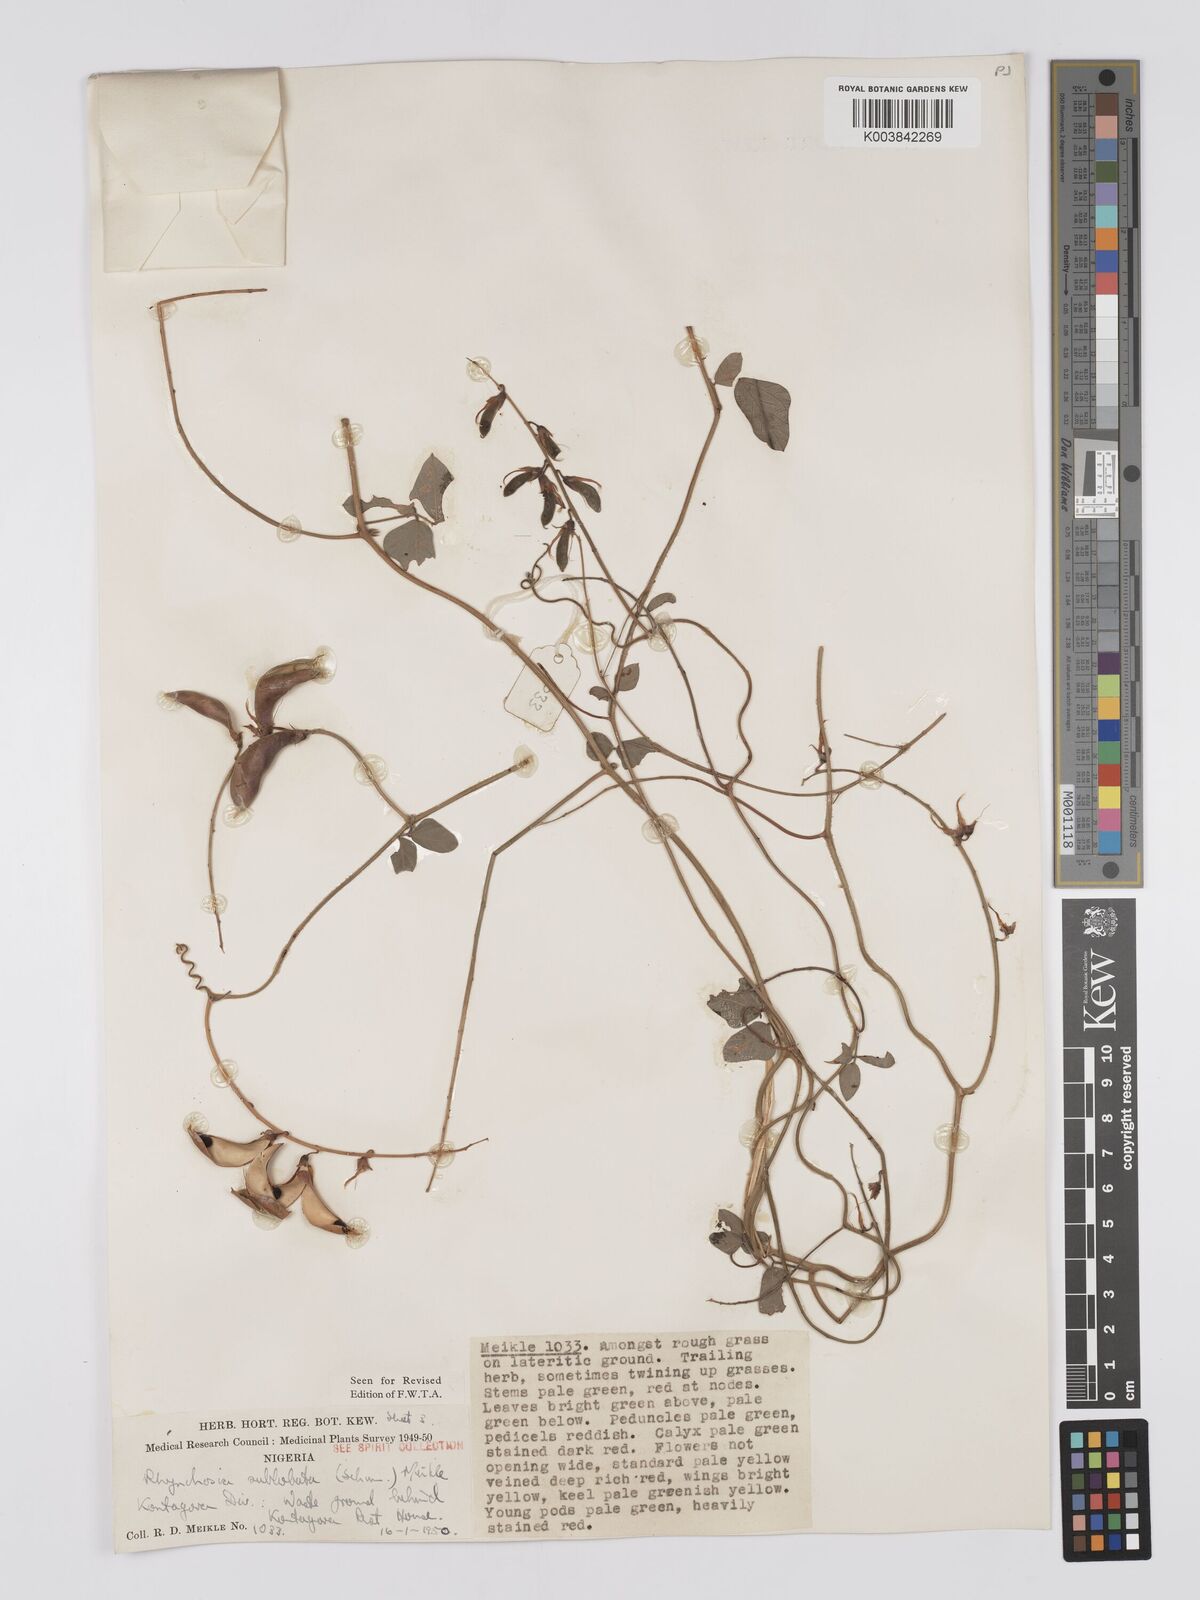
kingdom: Plantae
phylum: Tracheophyta
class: Magnoliopsida
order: Fabales
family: Fabaceae
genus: Rhynchosia
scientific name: Rhynchosia sublobata
